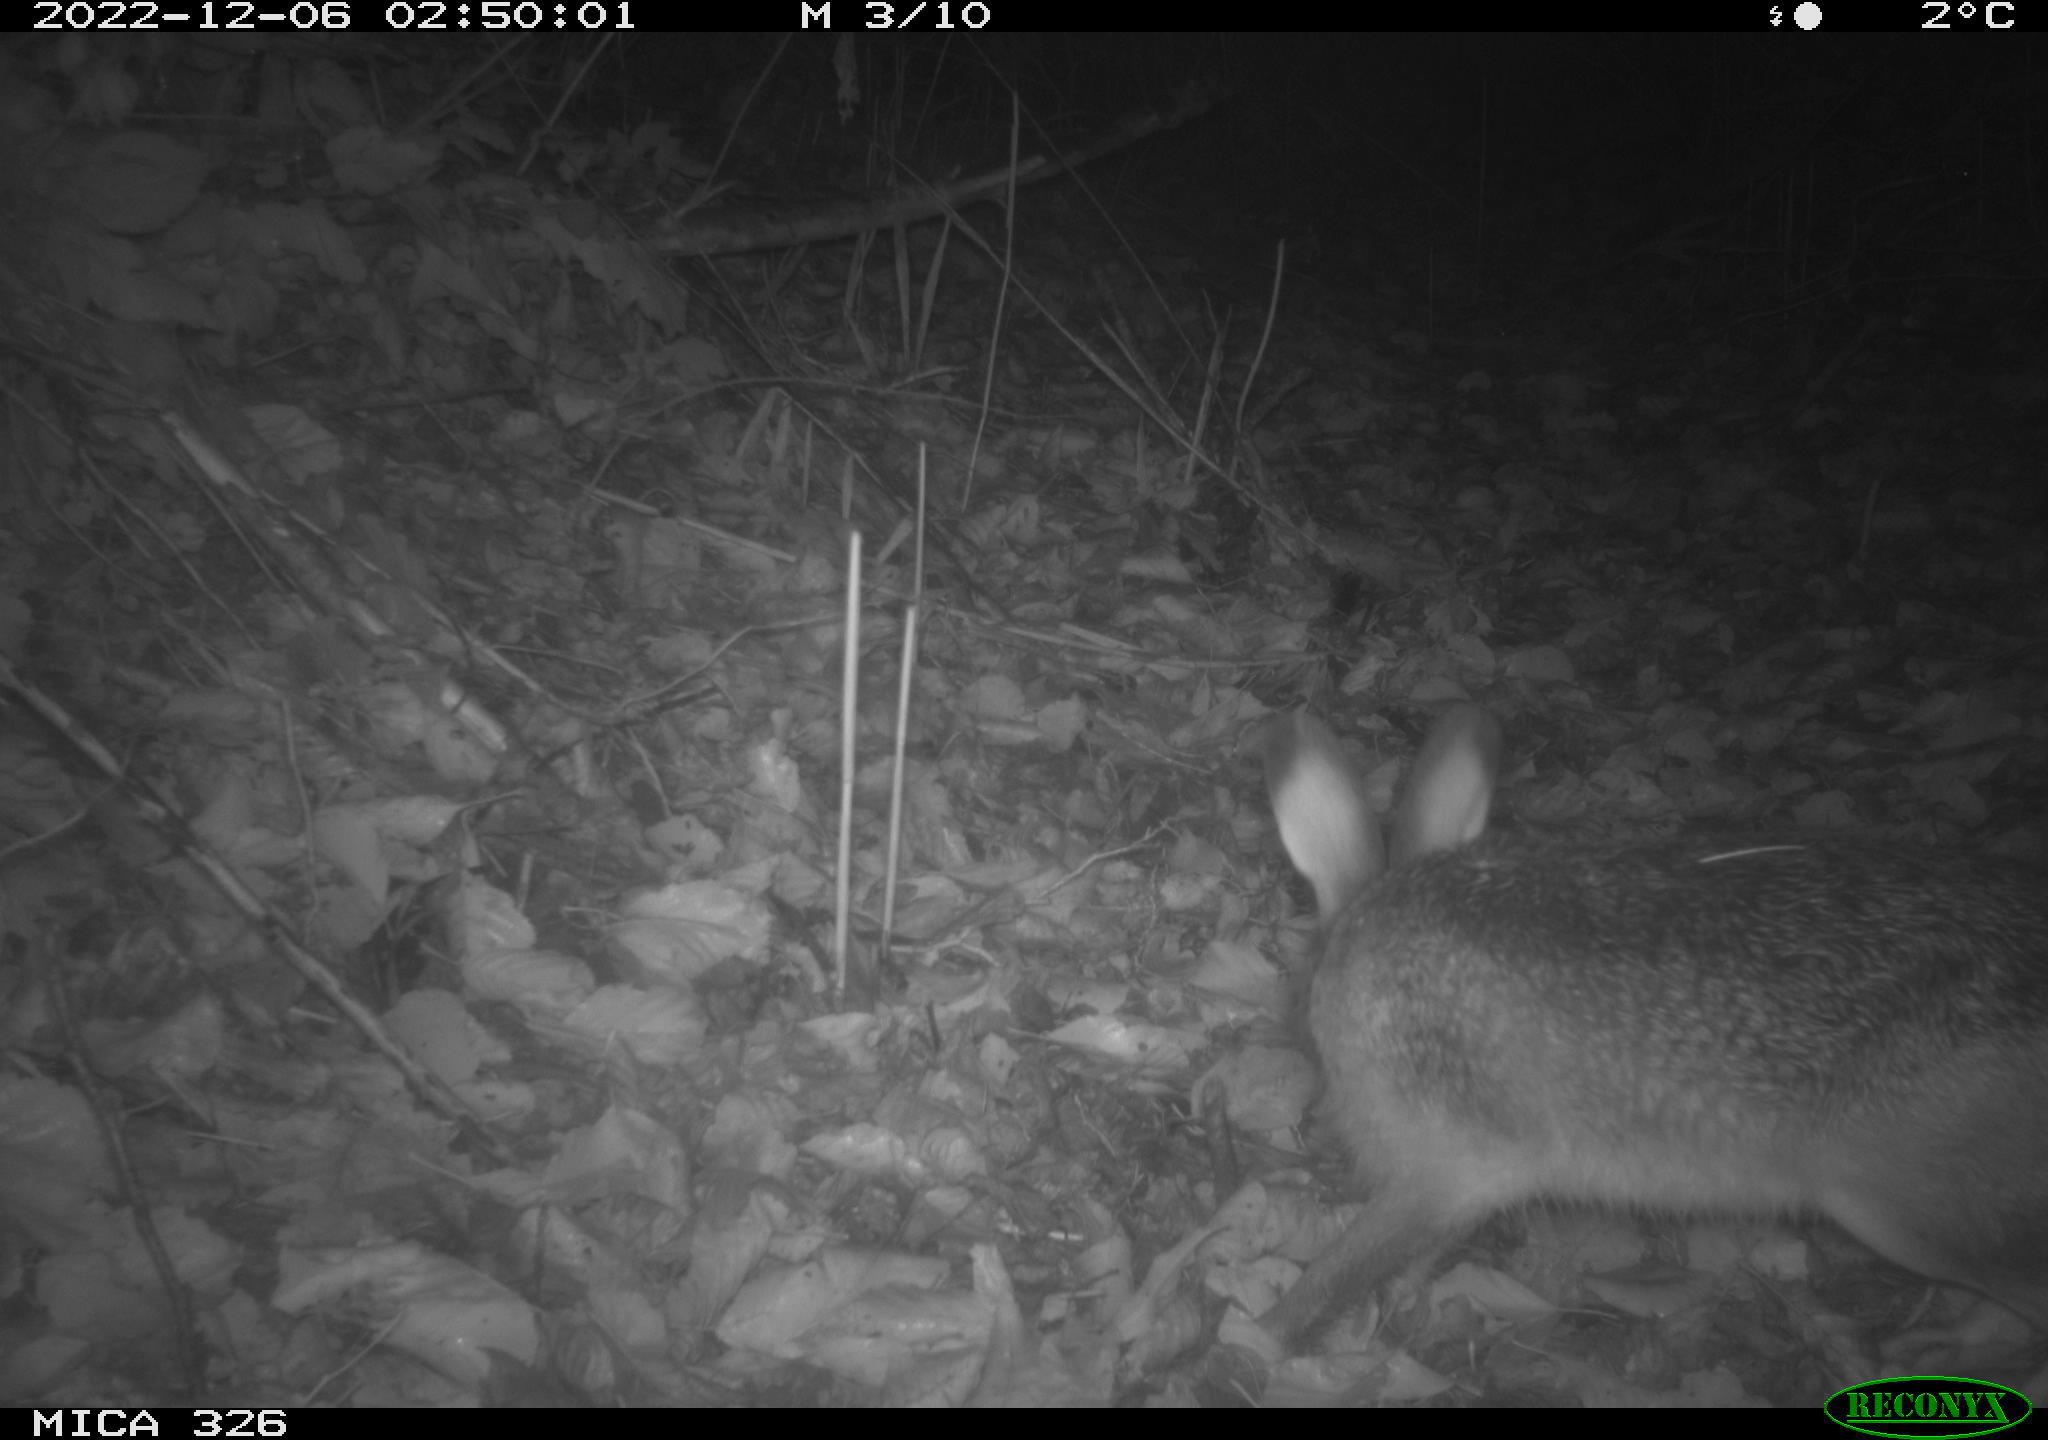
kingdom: Animalia
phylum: Chordata
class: Mammalia
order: Lagomorpha
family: Leporidae
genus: Lepus
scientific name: Lepus europaeus
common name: European hare
